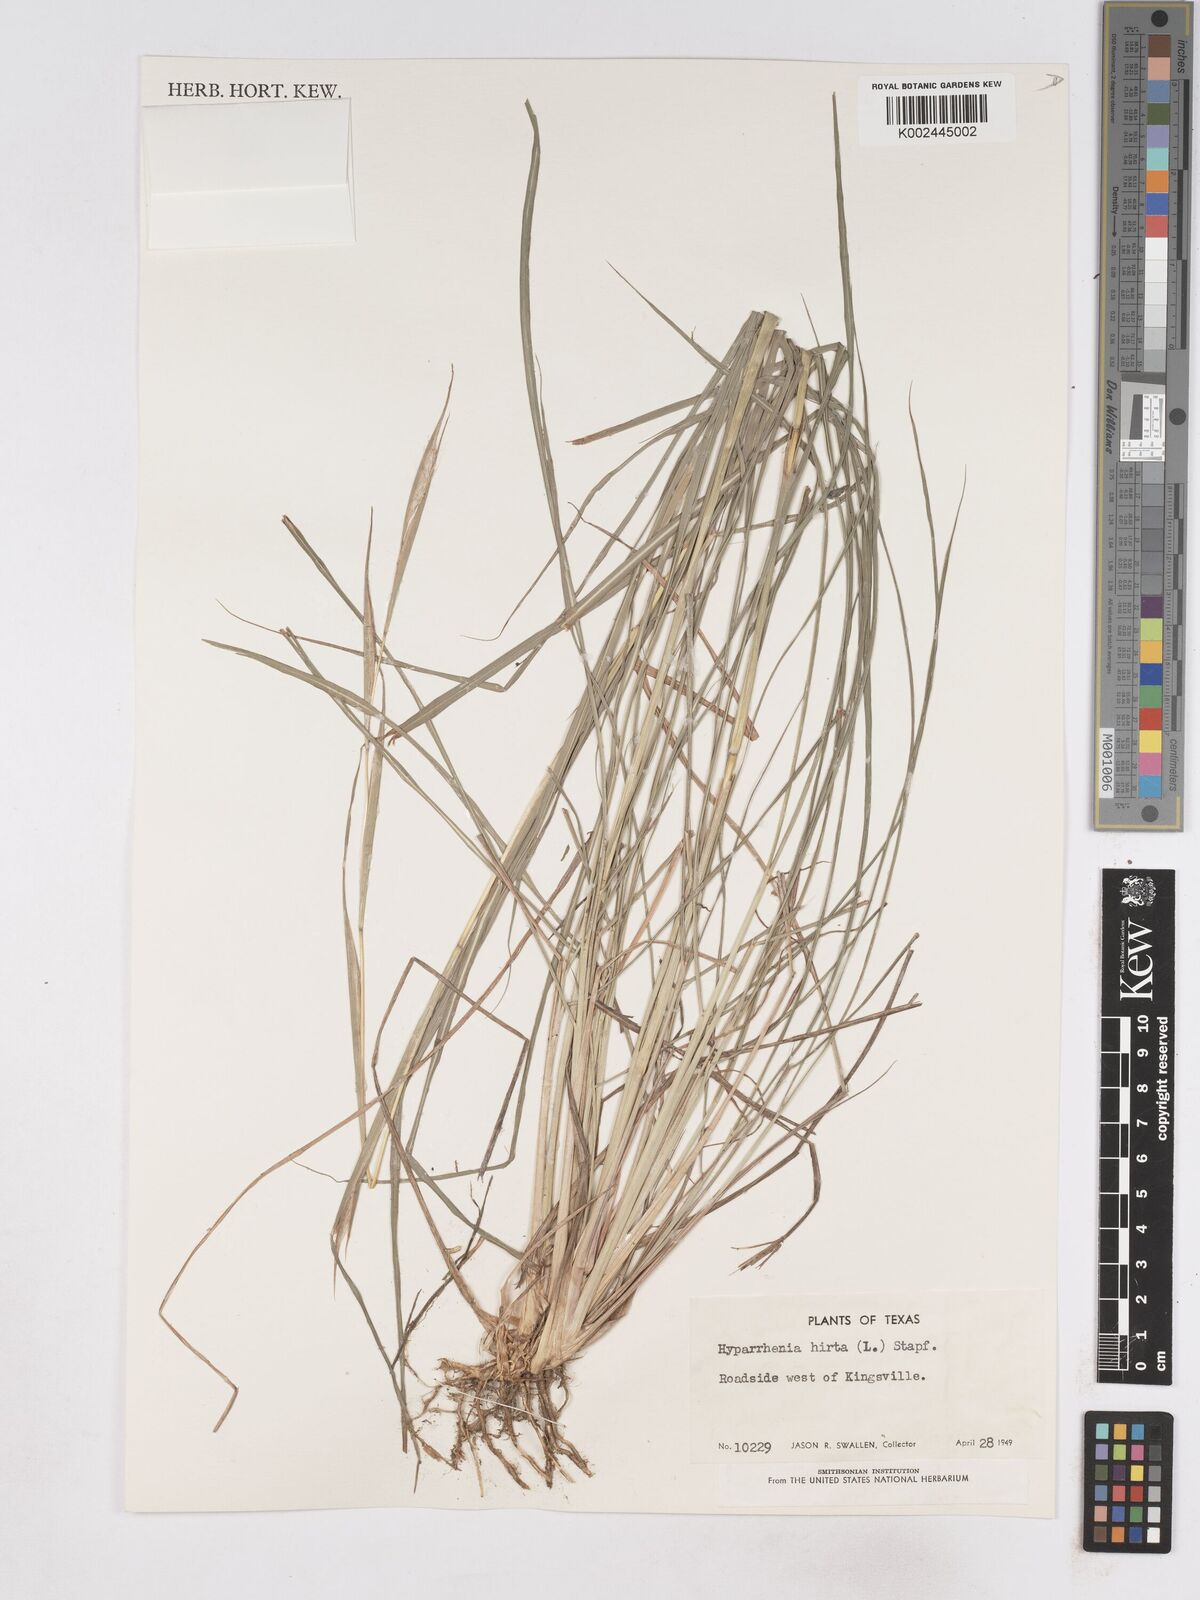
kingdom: Plantae
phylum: Tracheophyta
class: Liliopsida
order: Poales
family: Poaceae
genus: Hyparrhenia
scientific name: Hyparrhenia rufa
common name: Jaraguagrass
